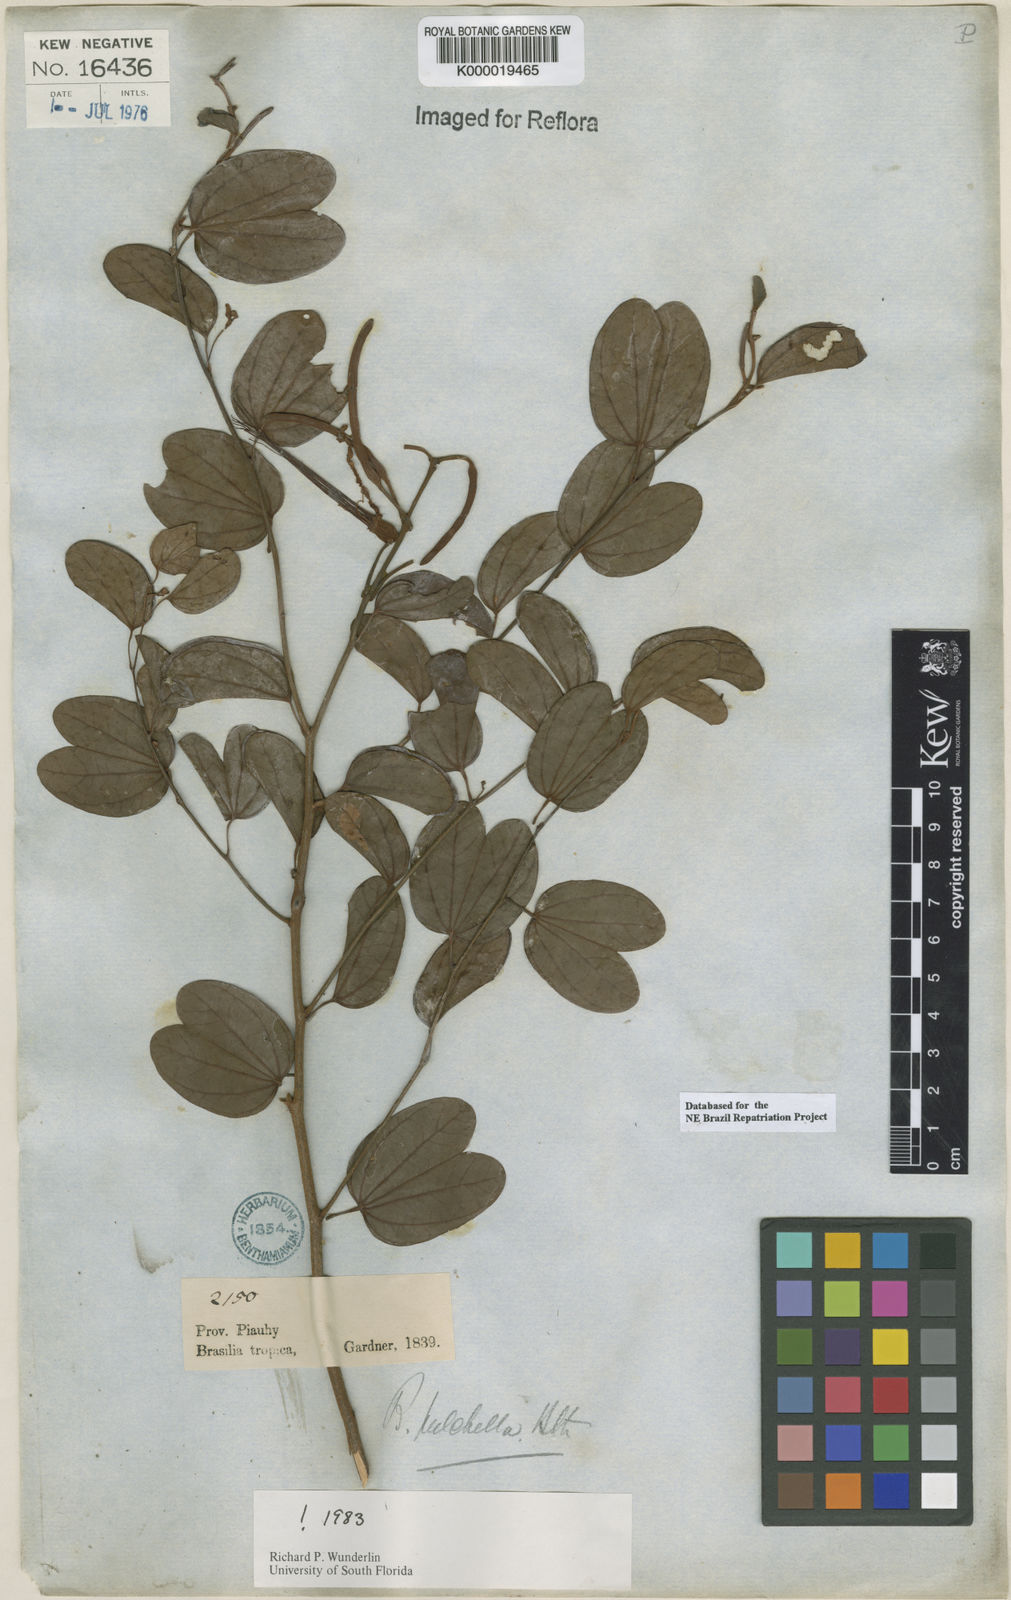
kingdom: Plantae
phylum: Tracheophyta
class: Magnoliopsida
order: Fabales
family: Fabaceae
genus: Bauhinia
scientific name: Bauhinia pulchella
